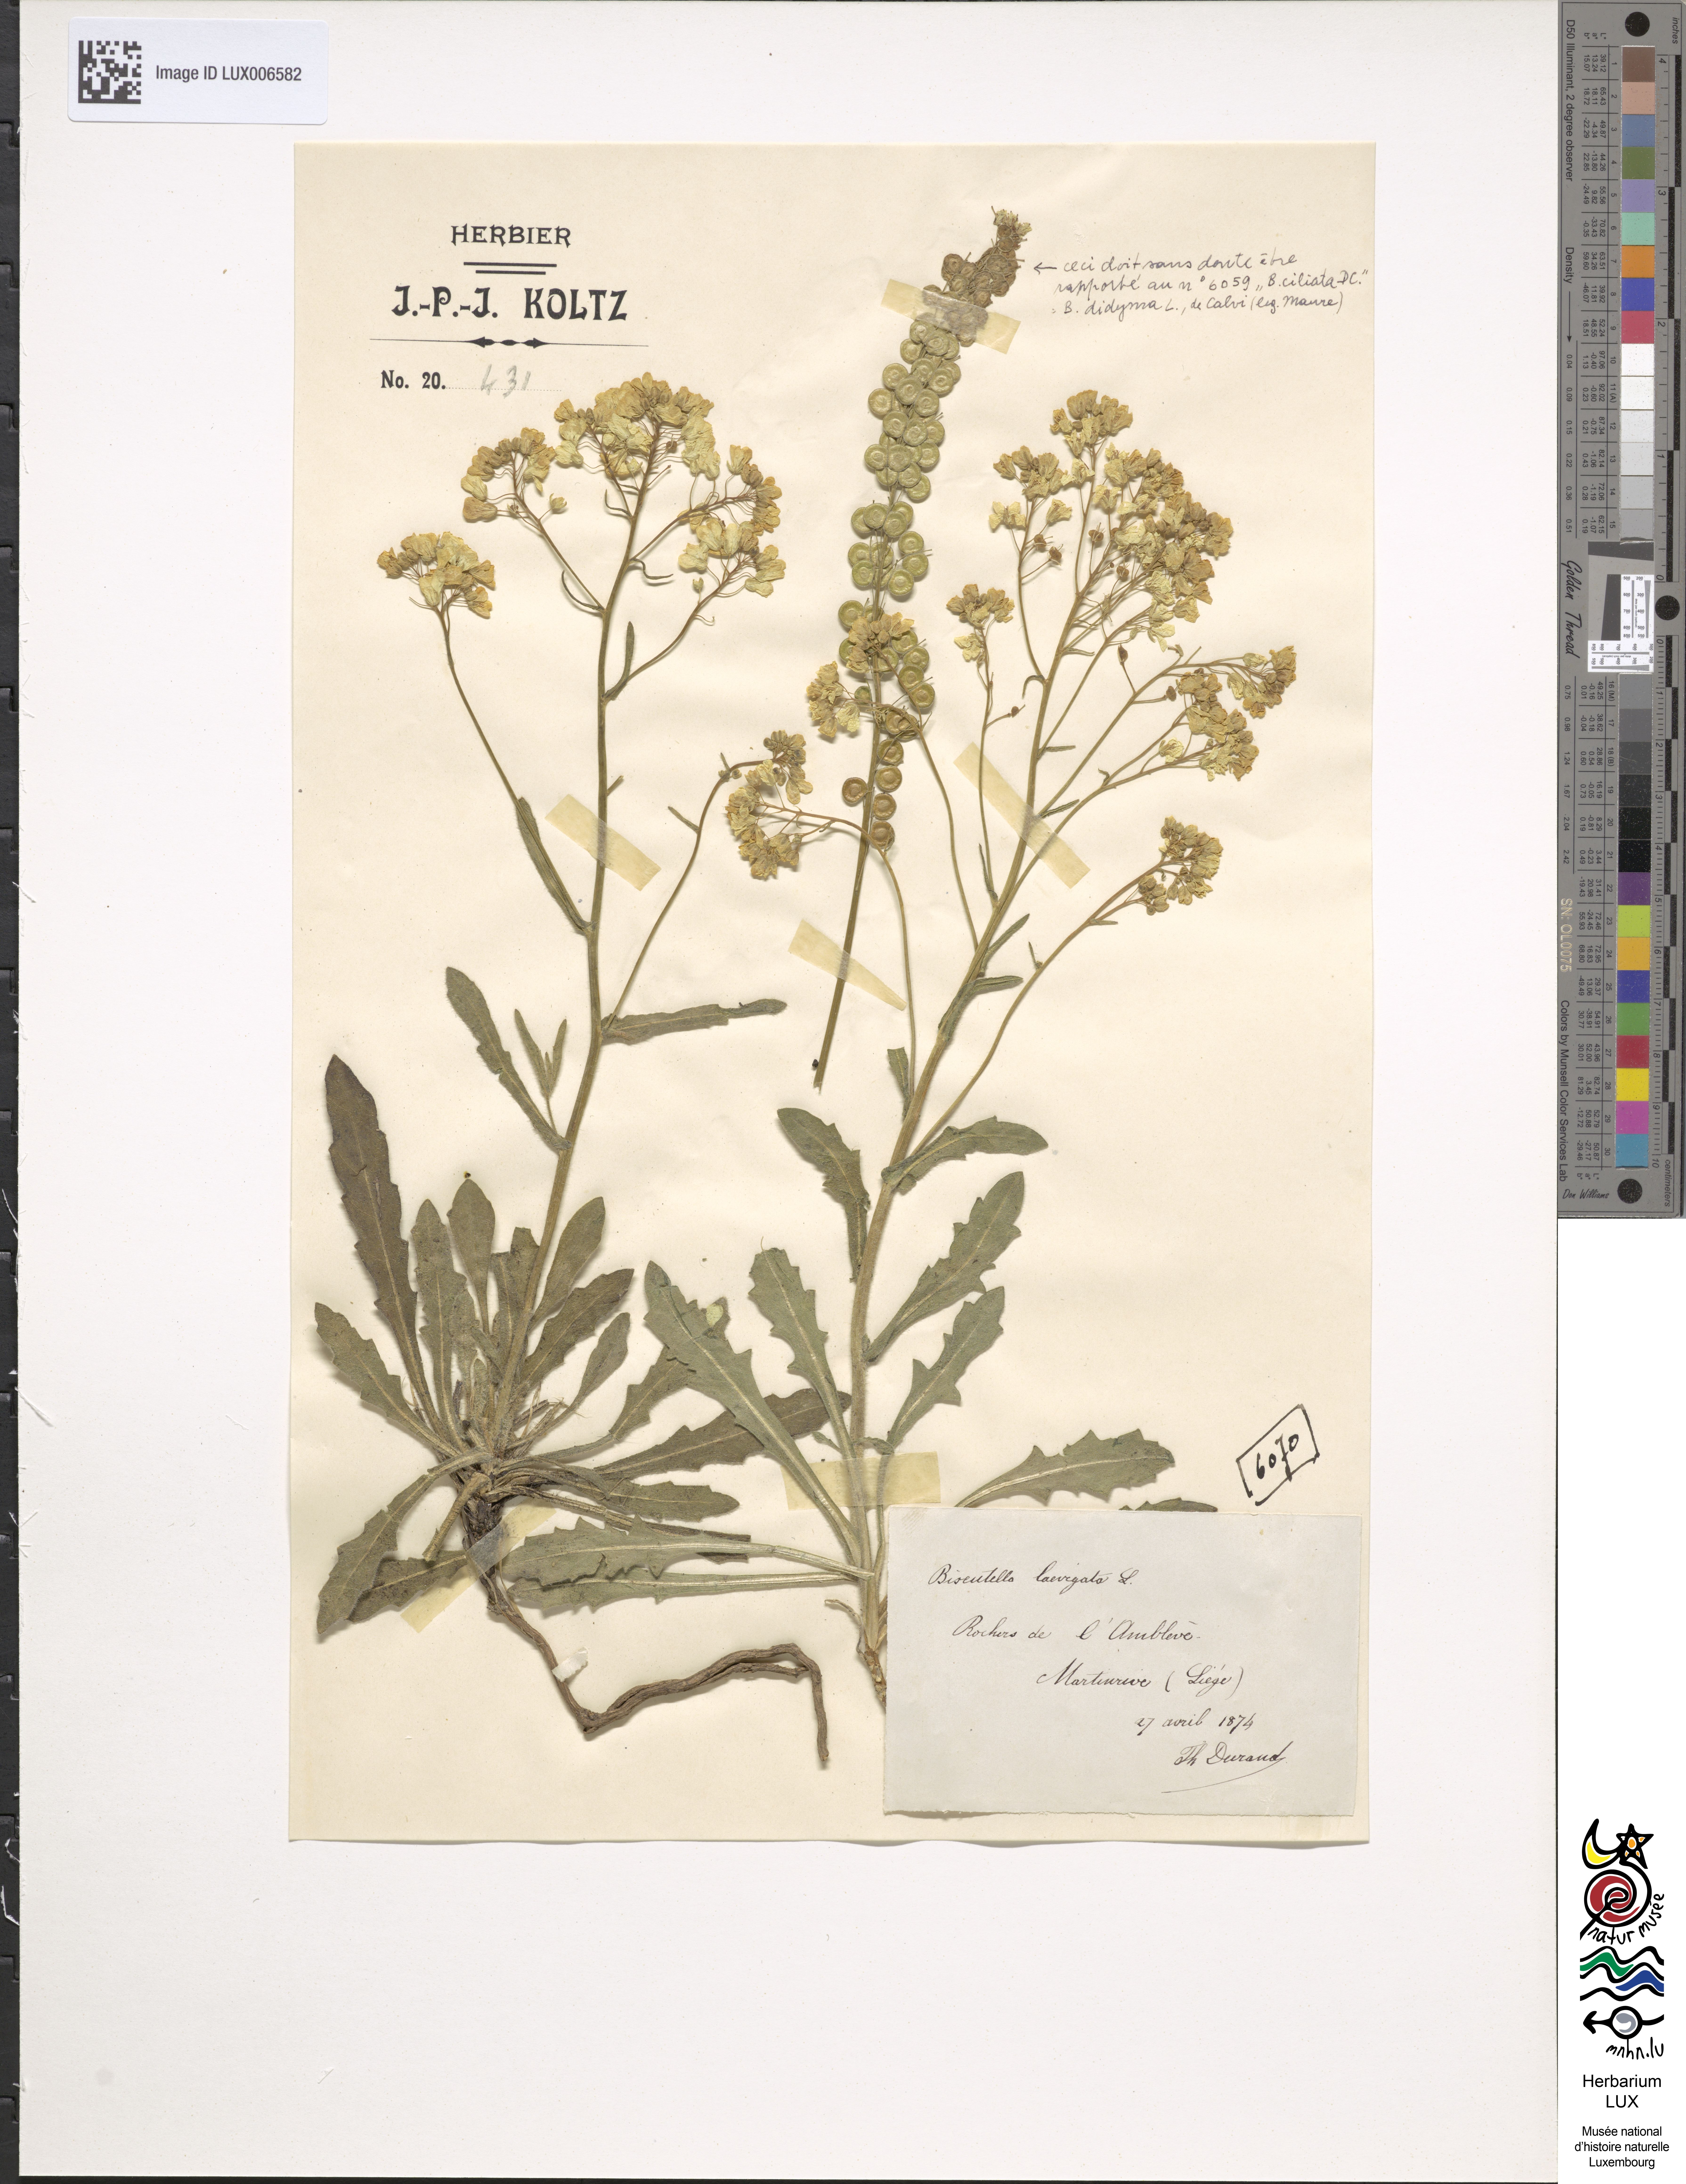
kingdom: Plantae
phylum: Tracheophyta
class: Magnoliopsida
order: Brassicales
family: Brassicaceae
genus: Biscutella
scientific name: Biscutella laevigata
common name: Buckler mustard
